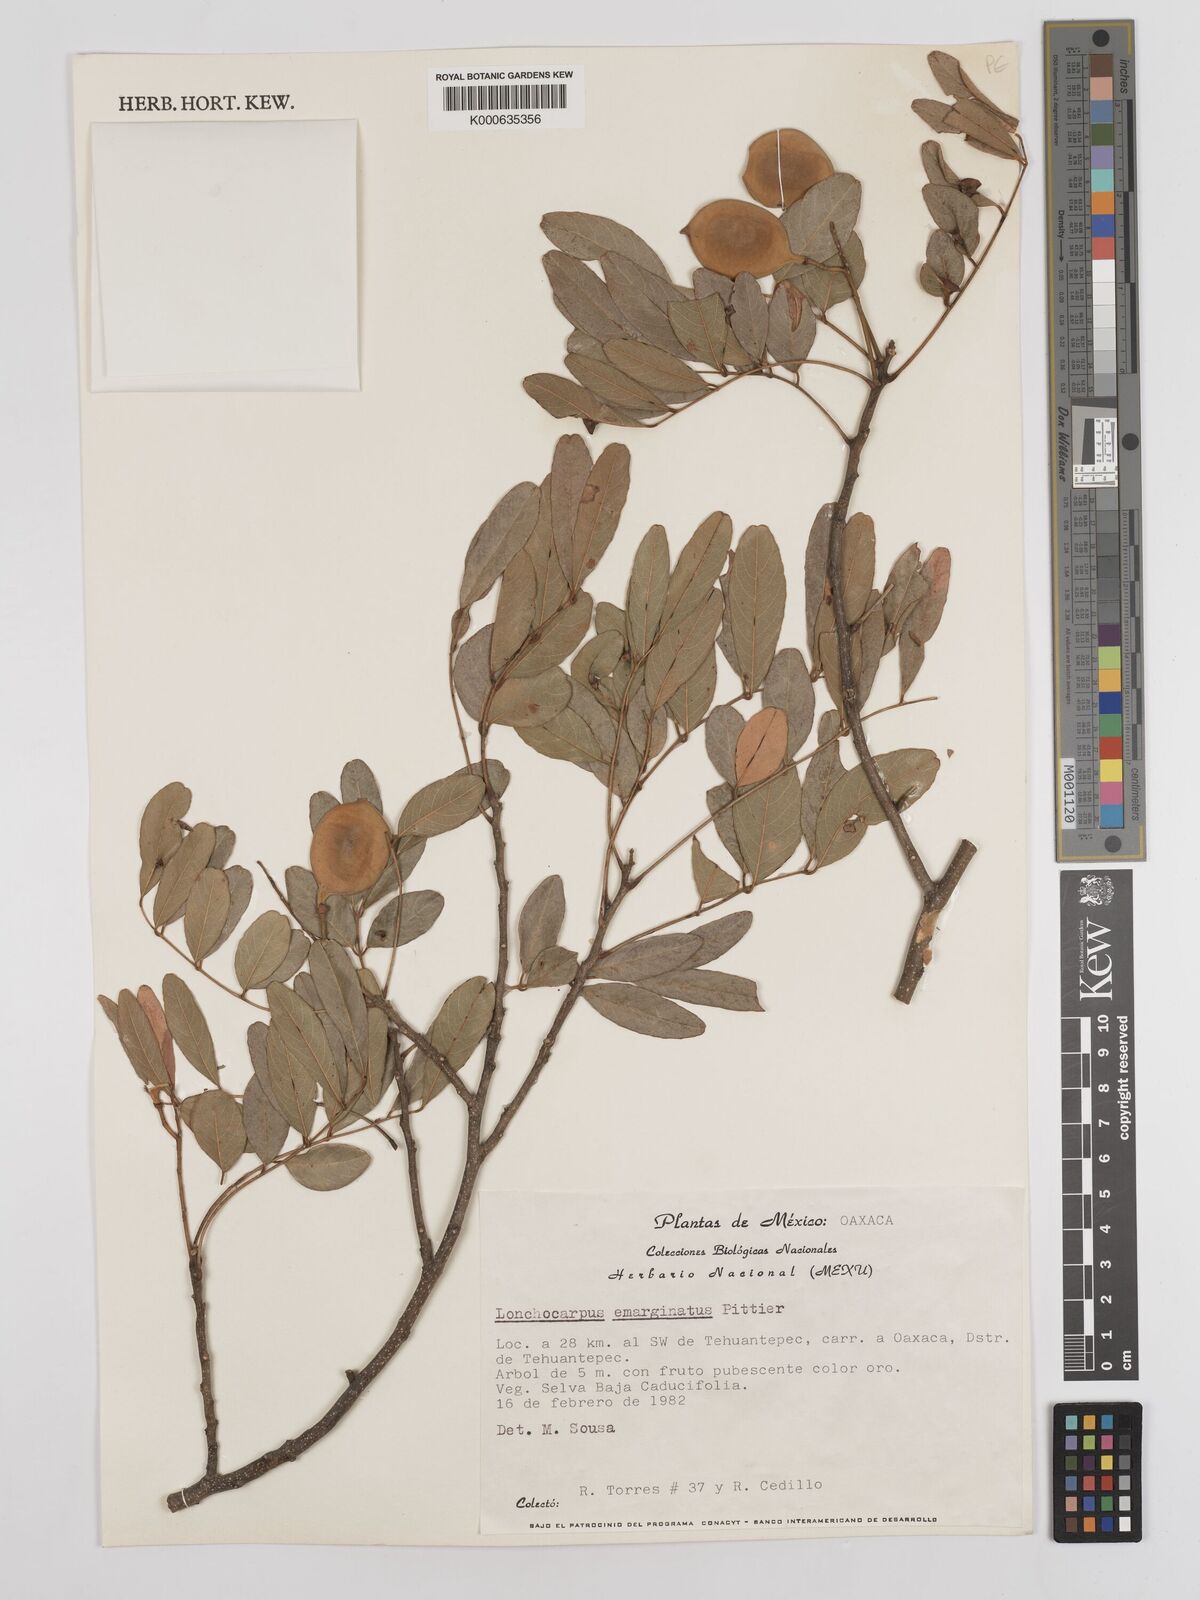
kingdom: Plantae
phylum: Tracheophyta
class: Magnoliopsida
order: Fabales
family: Fabaceae
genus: Lonchocarpus
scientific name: Lonchocarpus emarginatus
